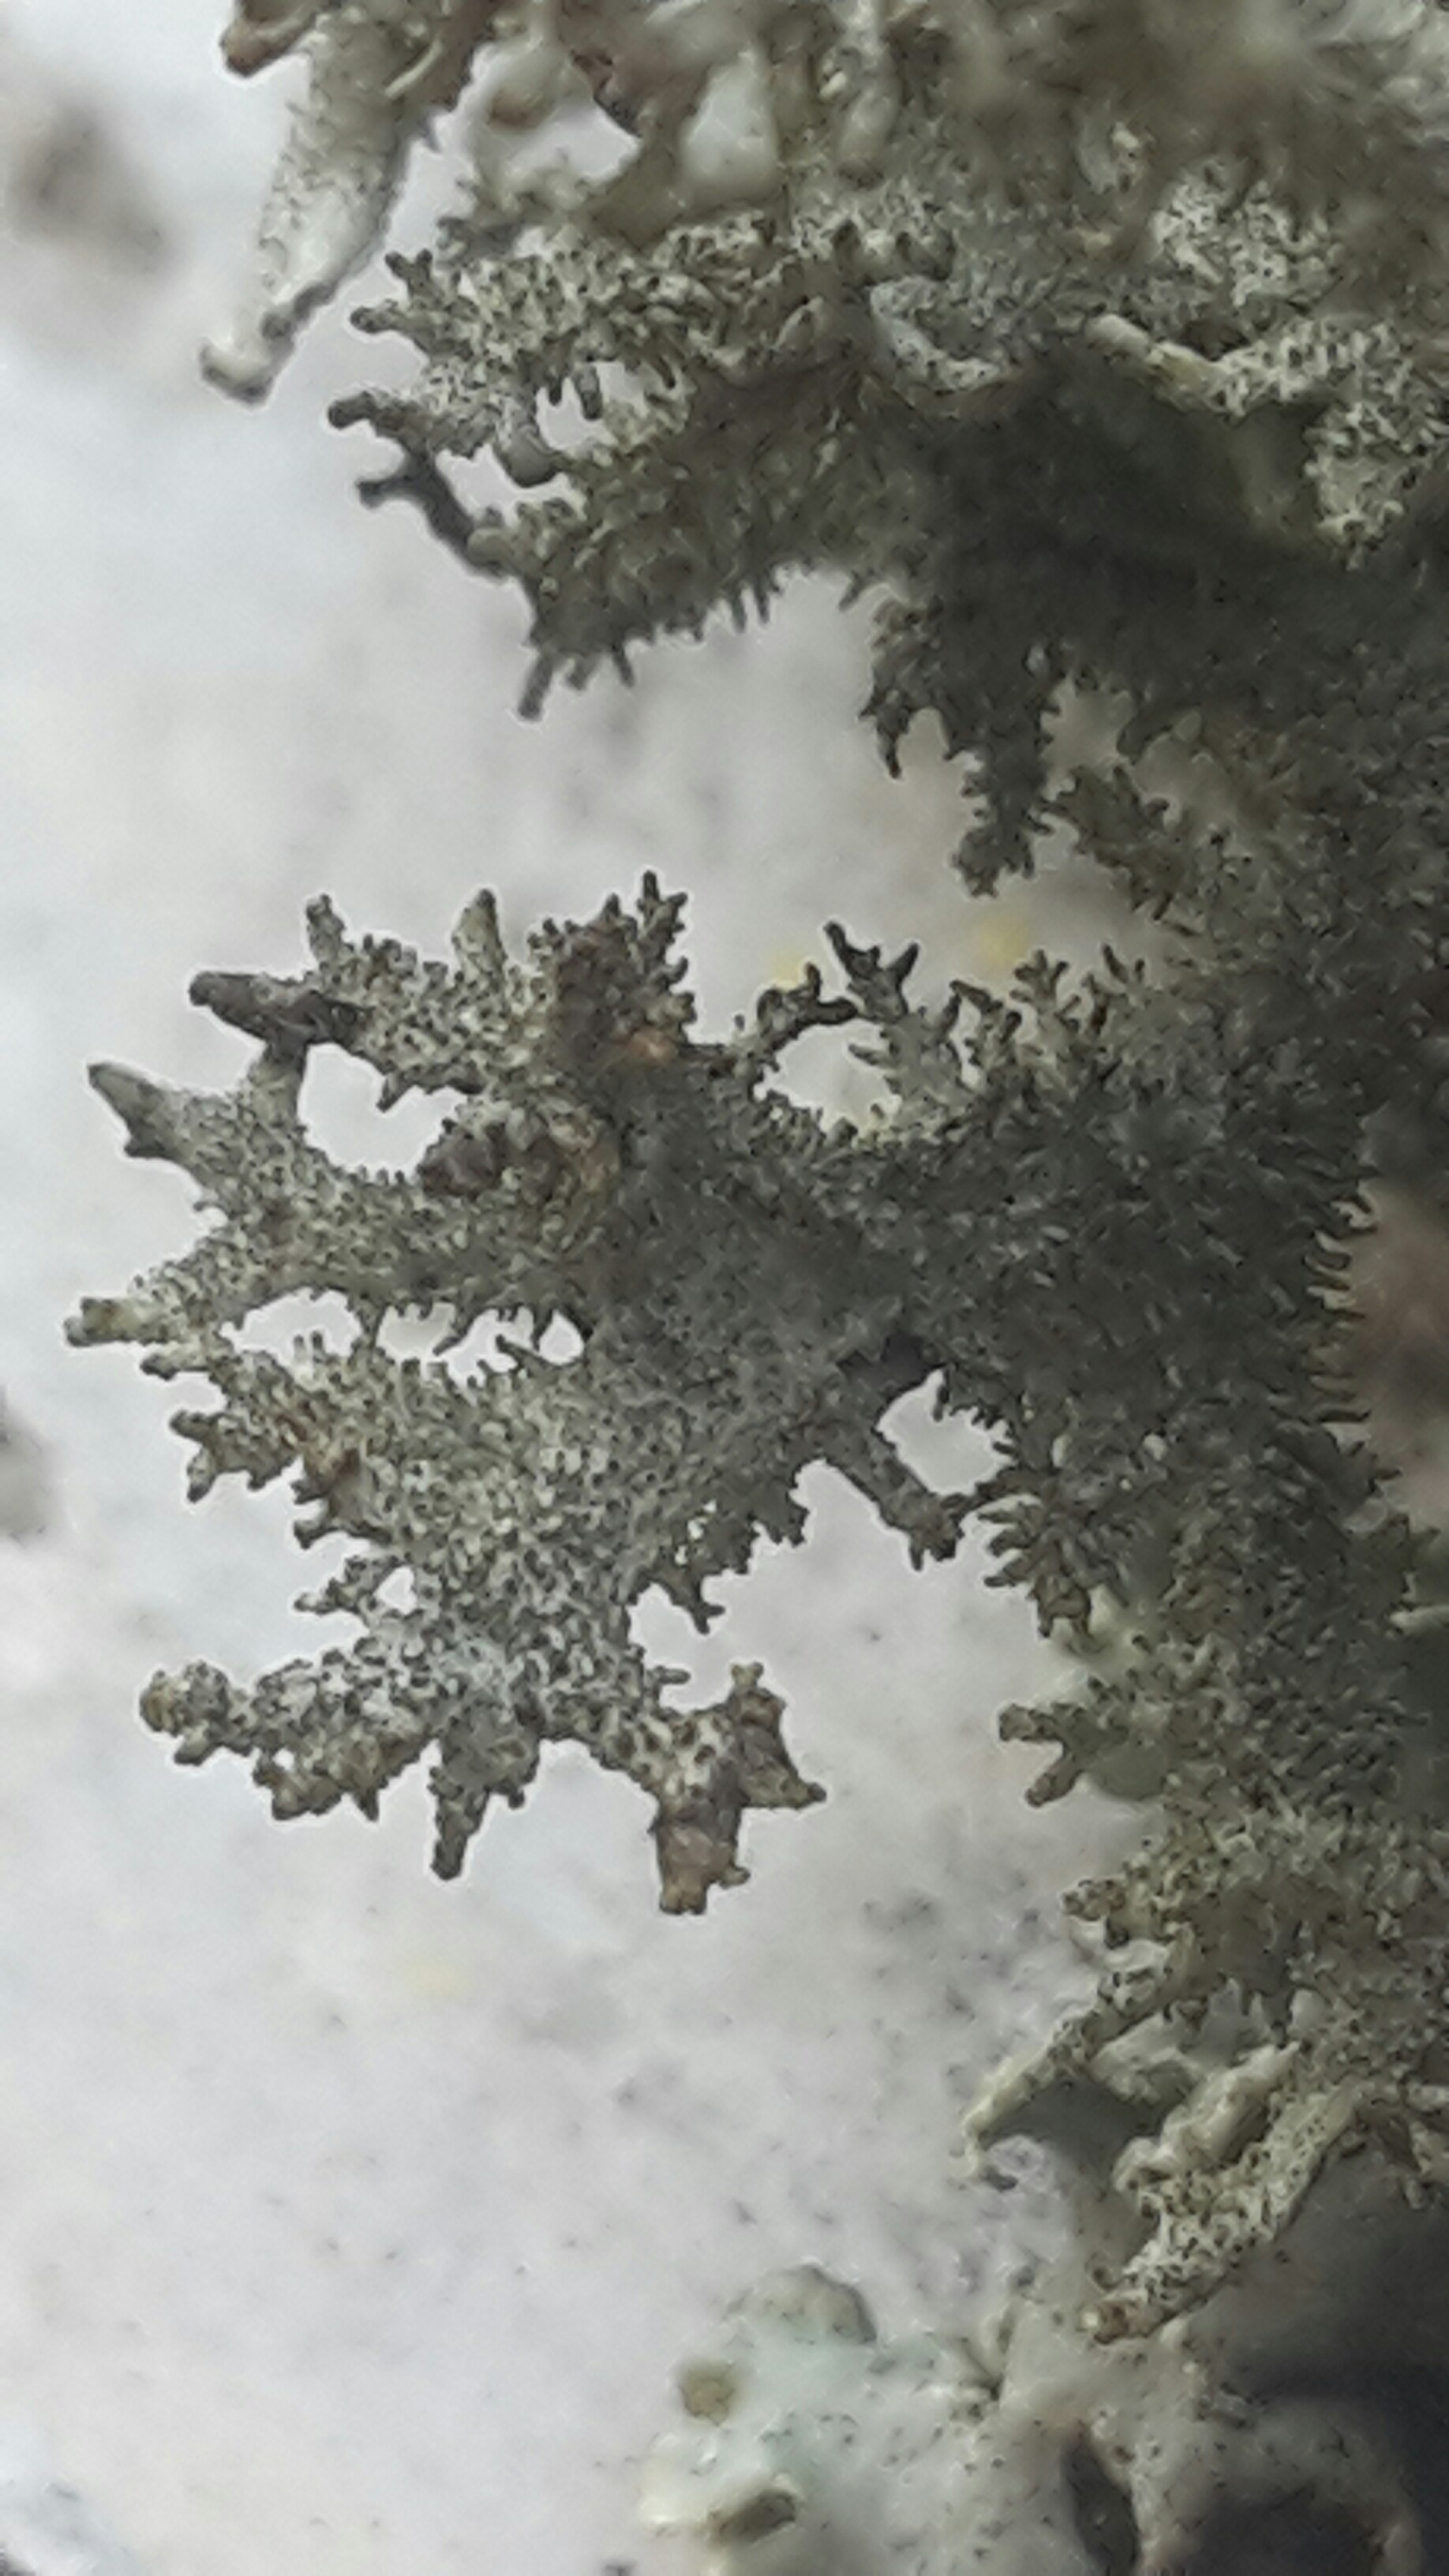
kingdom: Fungi
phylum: Ascomycota
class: Lecanoromycetes
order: Lecanorales
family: Parmeliaceae
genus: Pseudevernia
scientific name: Pseudevernia furfuracea
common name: grå fyrrelav
